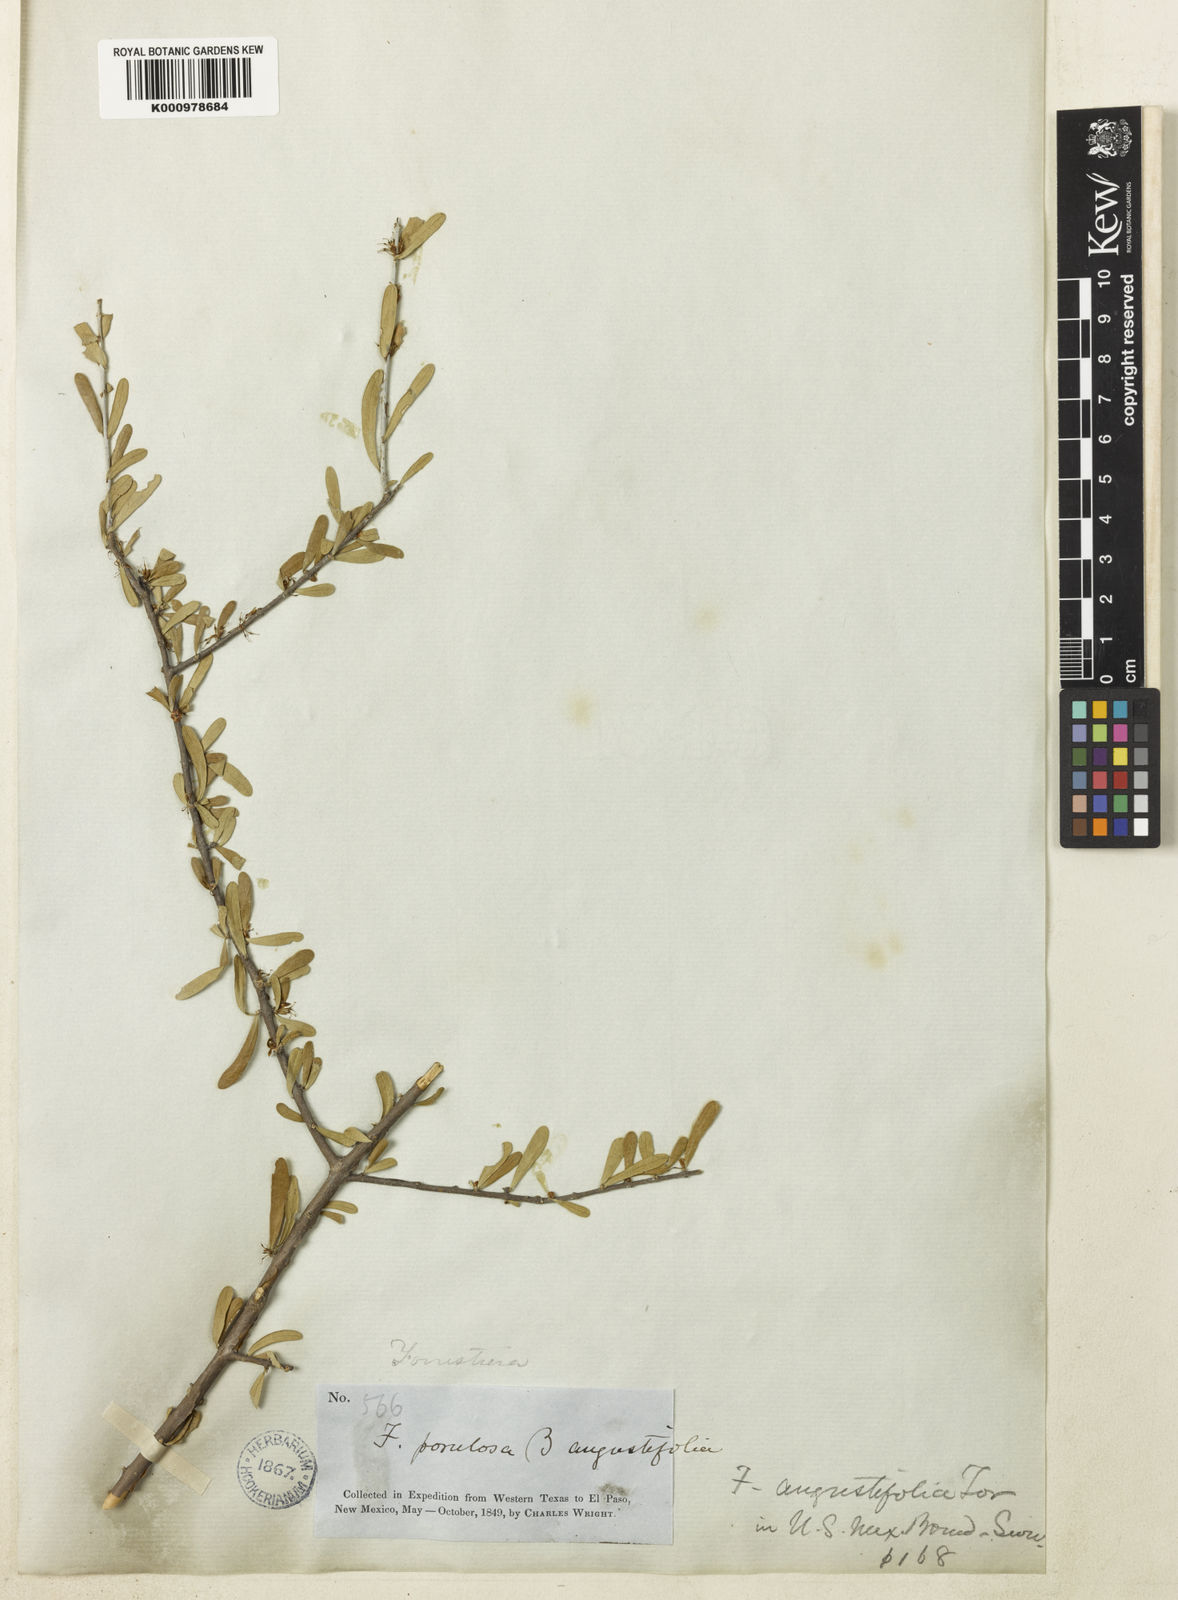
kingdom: Plantae
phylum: Tracheophyta
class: Magnoliopsida
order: Lamiales
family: Oleaceae
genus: Forestiera
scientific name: Forestiera angustifolia
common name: Elbowbush
